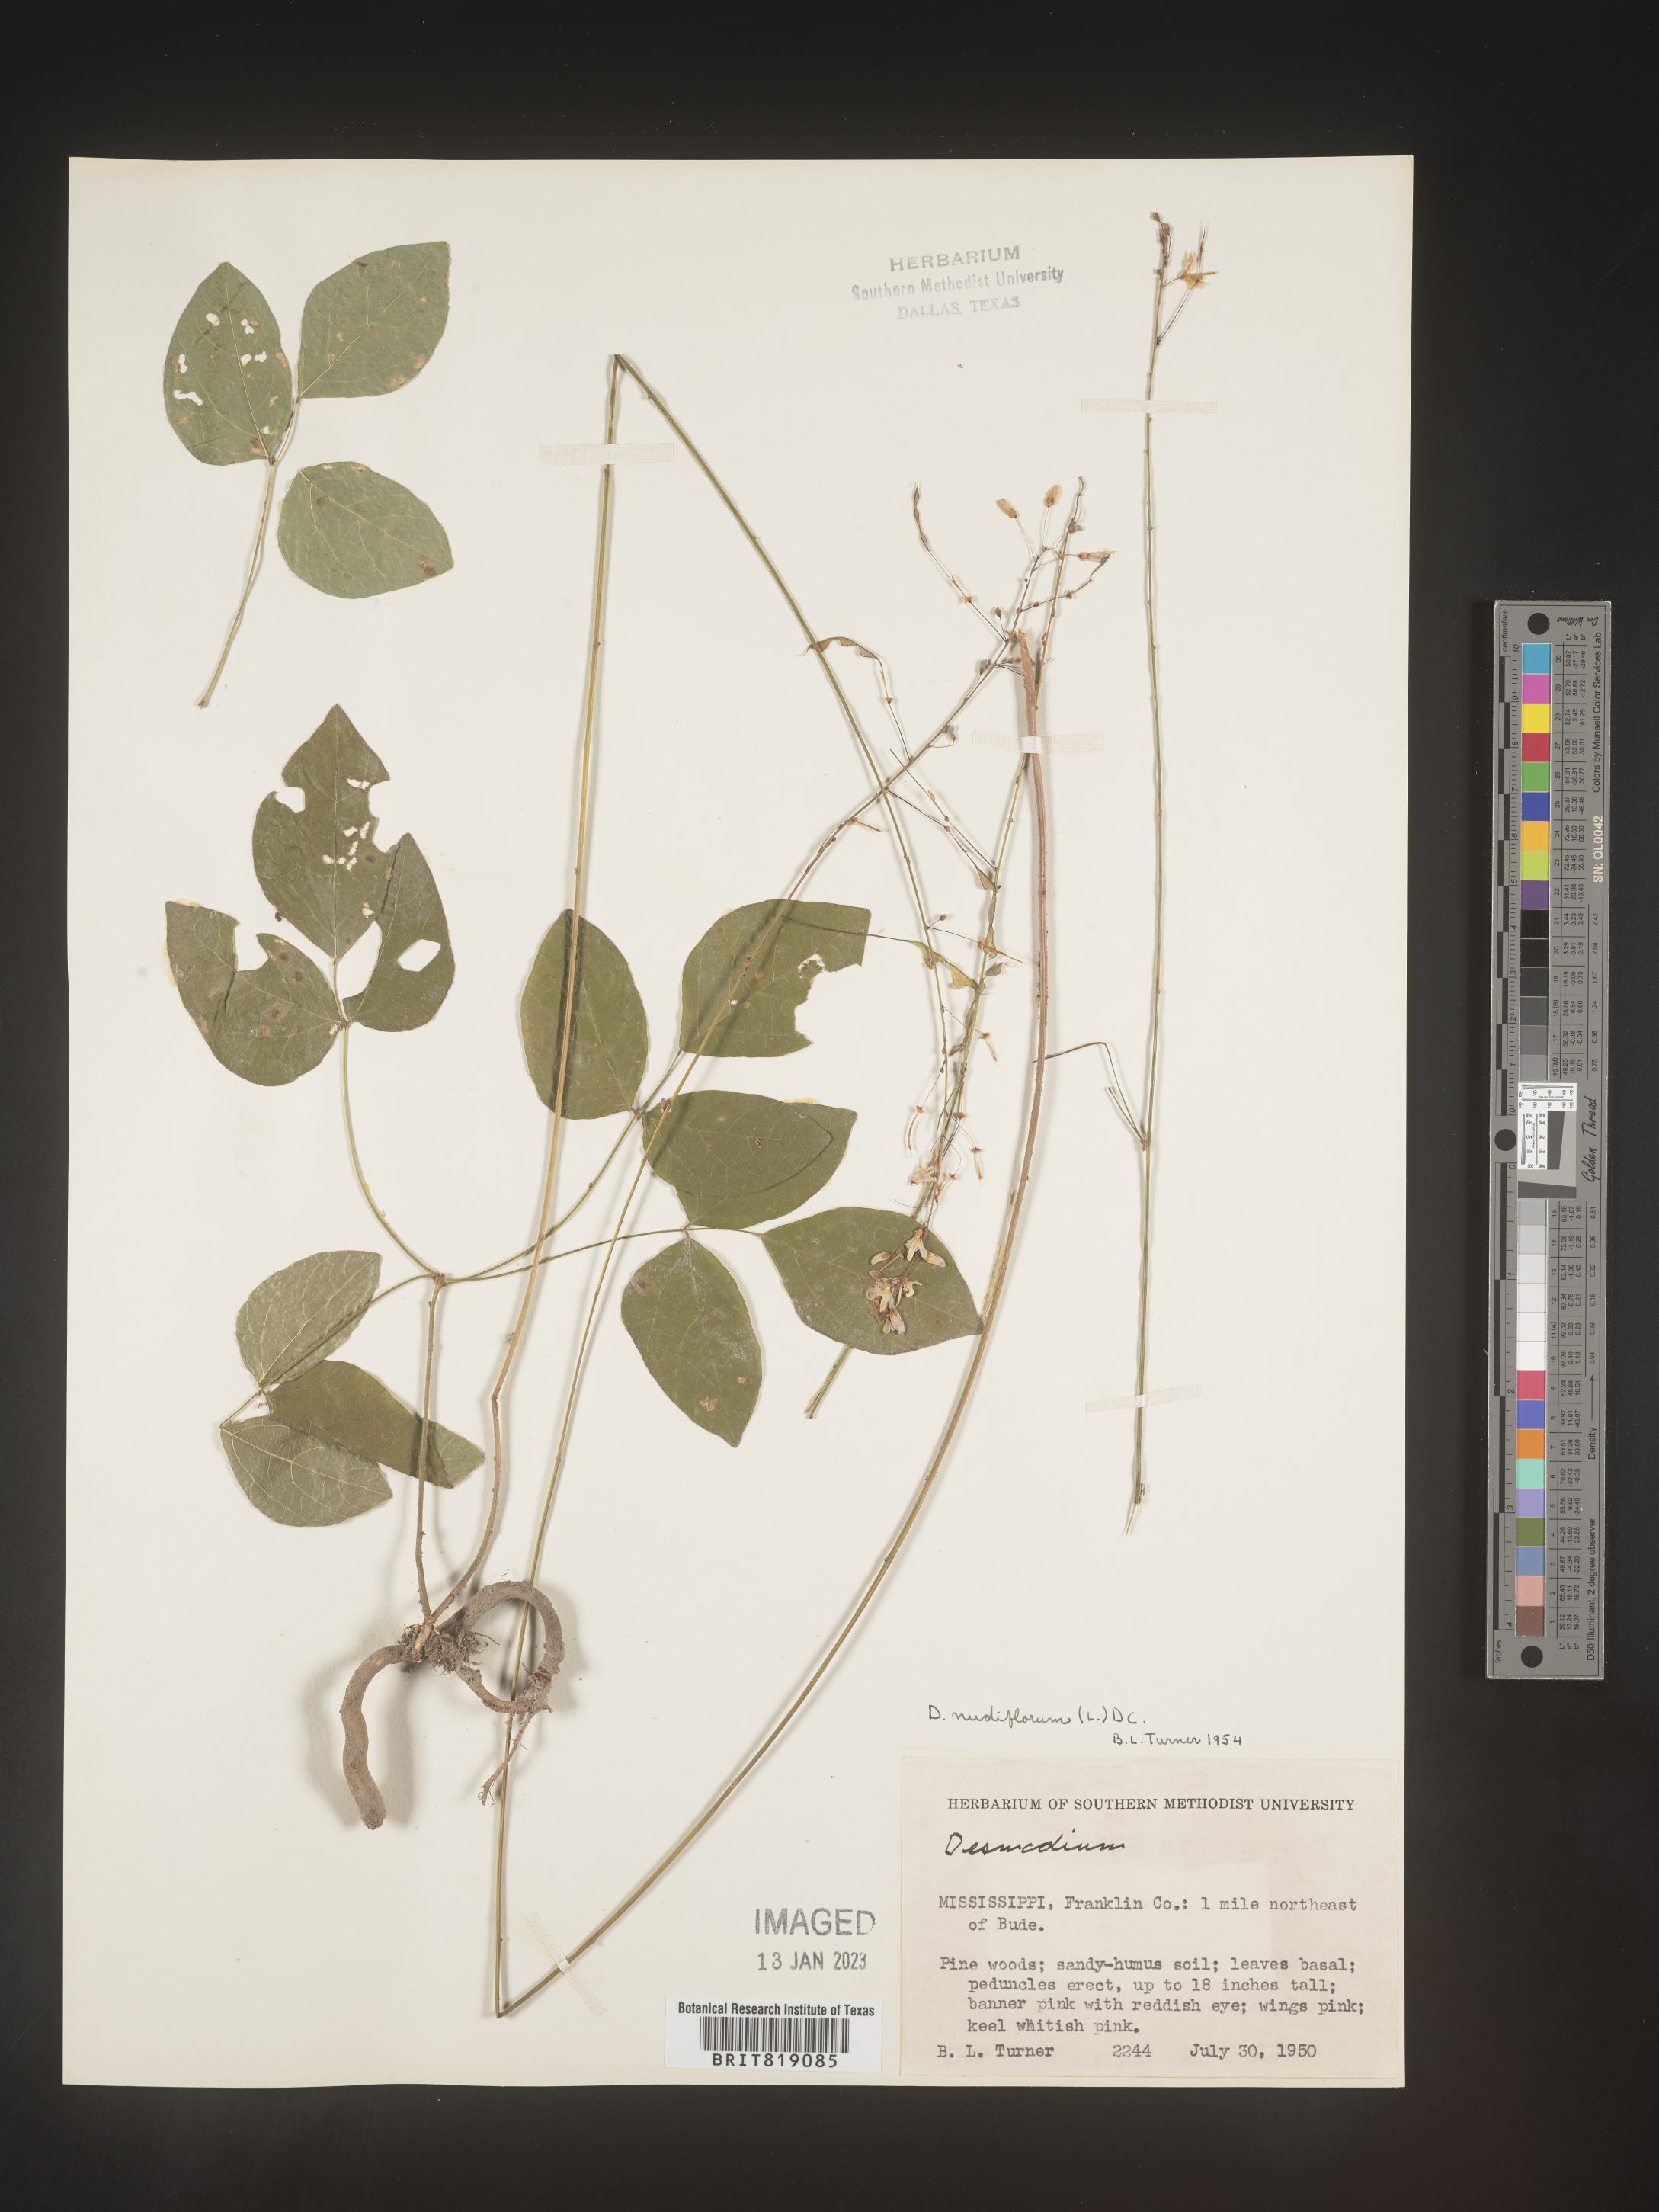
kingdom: Plantae
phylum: Tracheophyta
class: Magnoliopsida
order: Fabales
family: Fabaceae
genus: Hylodesmum
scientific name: Hylodesmum nudiflorum
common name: Bare-stemmed tick-trefoil
